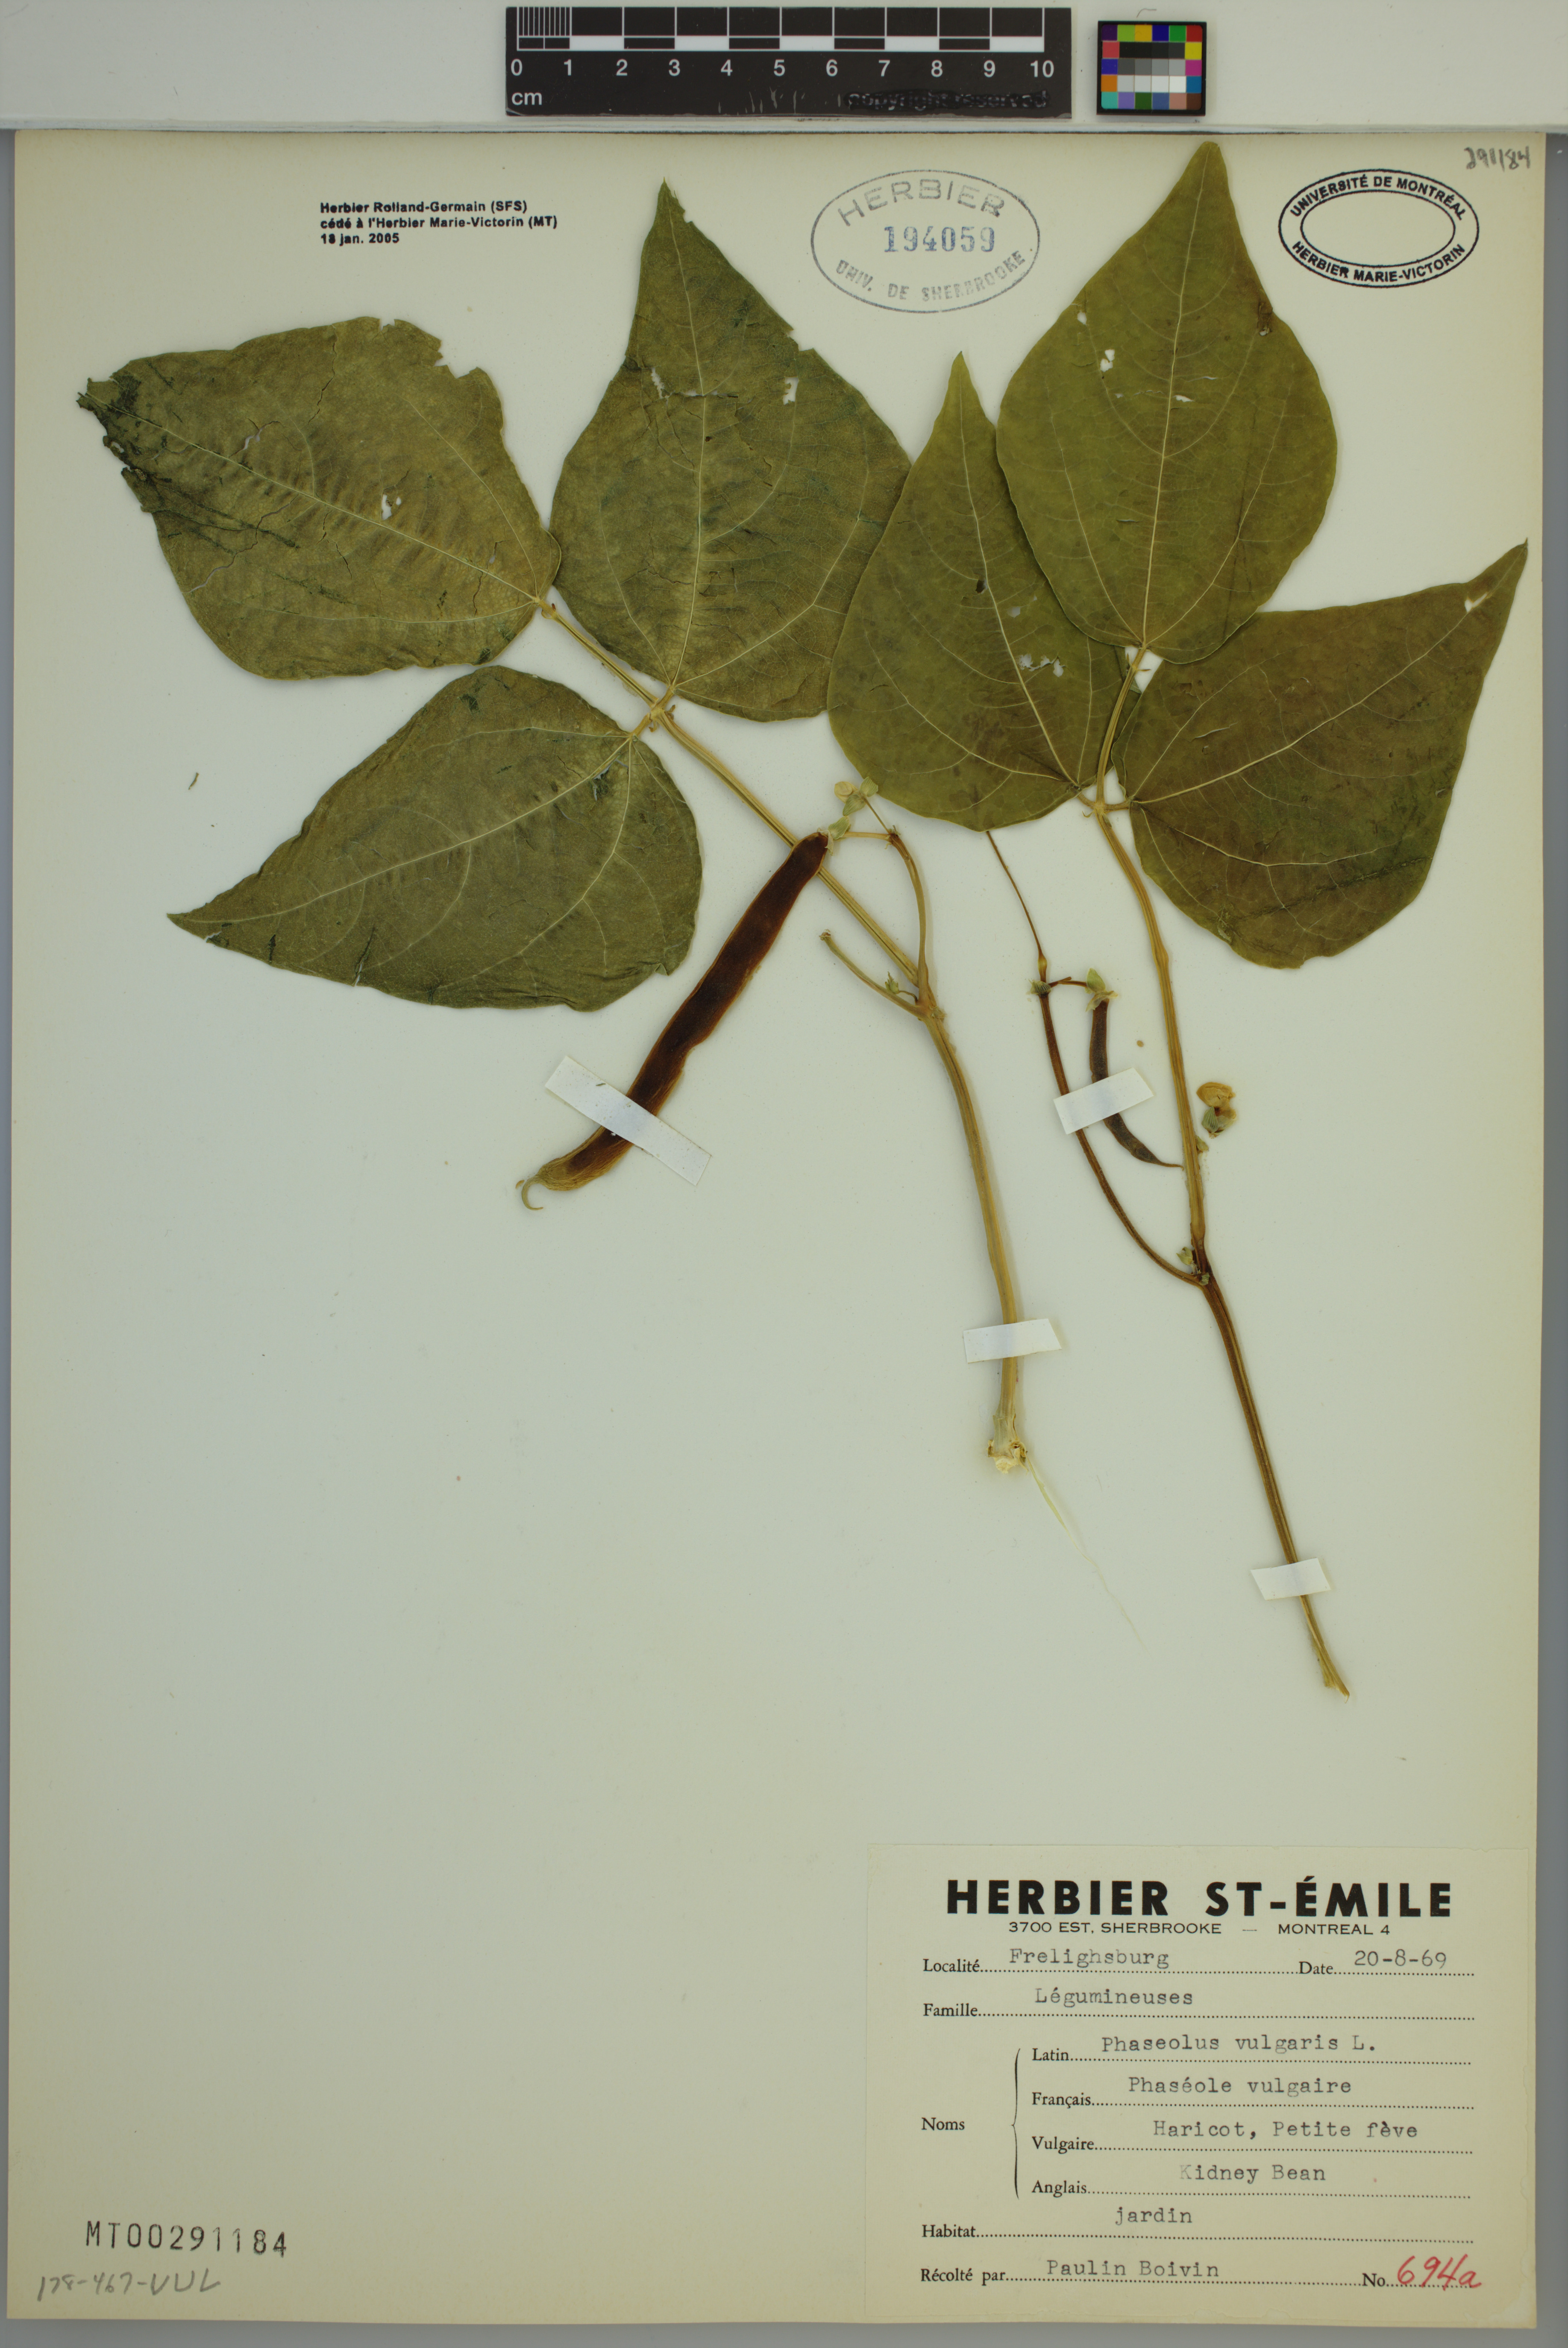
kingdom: Plantae
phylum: Tracheophyta
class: Magnoliopsida
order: Fabales
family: Fabaceae
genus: Phaseolus
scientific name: Phaseolus vulgaris
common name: Bean
